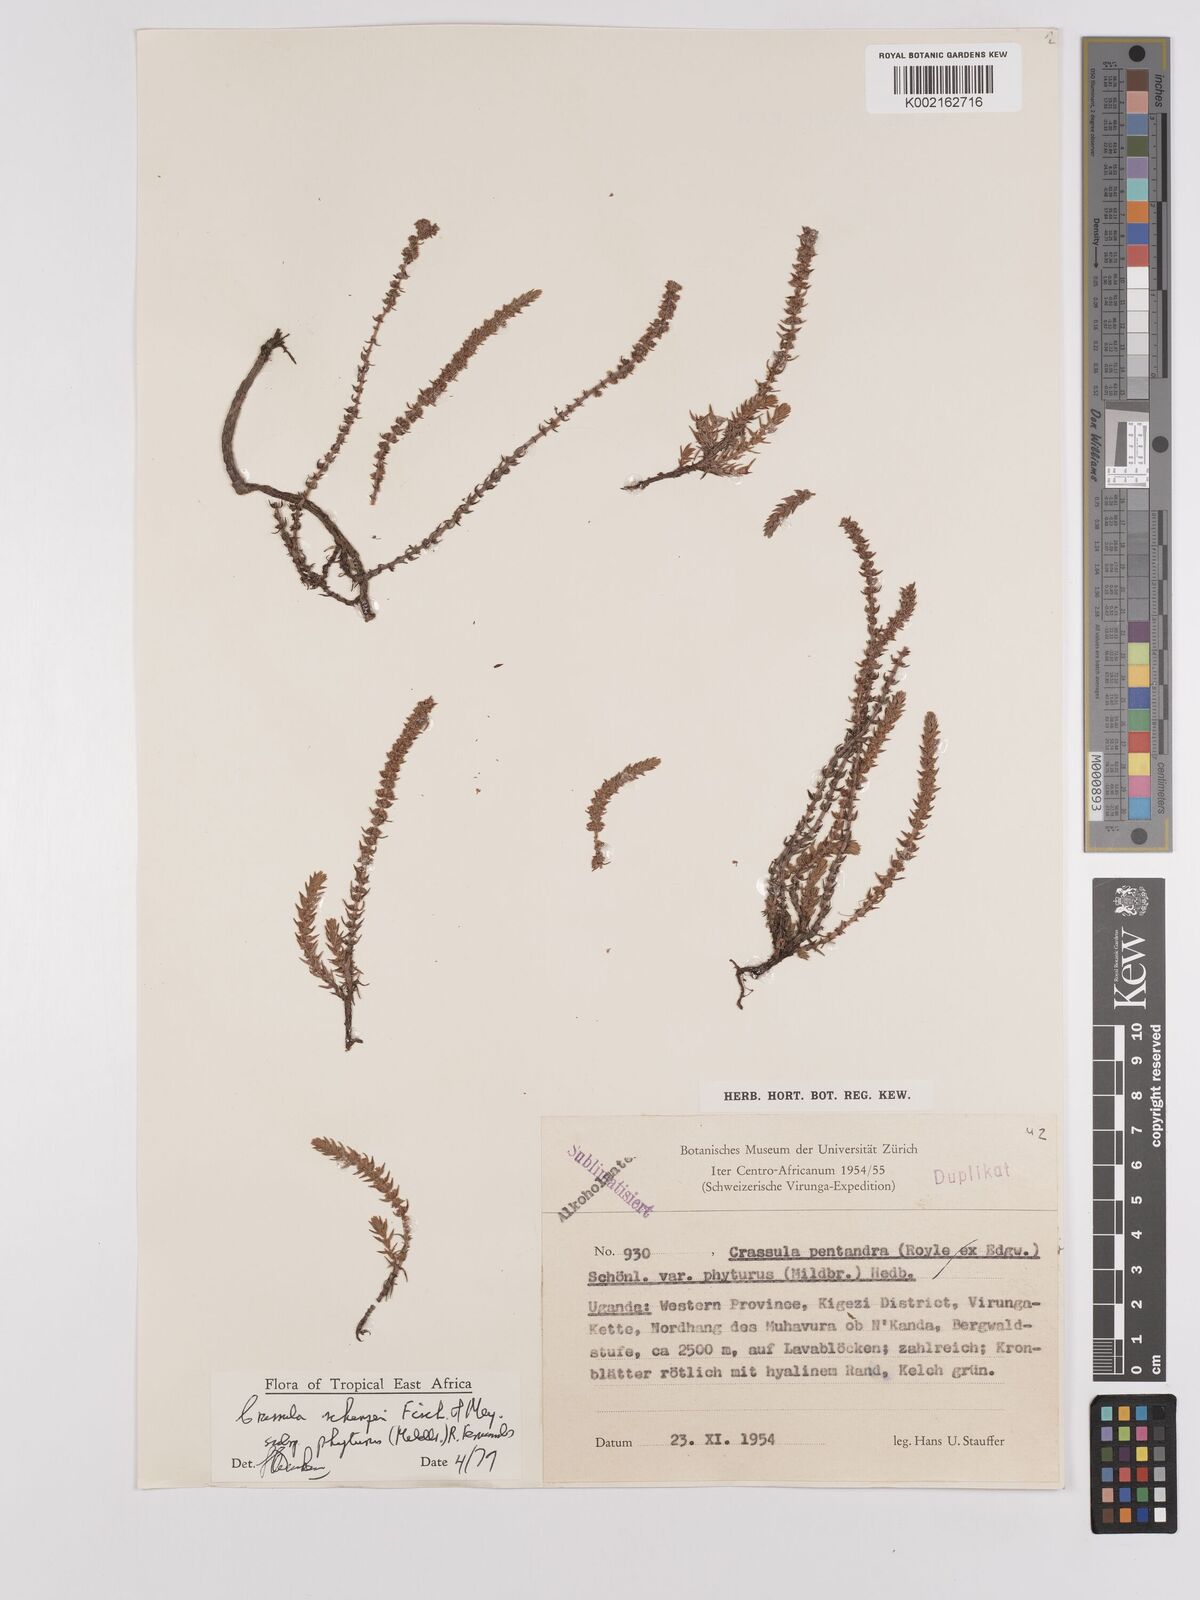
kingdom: Plantae
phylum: Tracheophyta
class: Magnoliopsida
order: Saxifragales
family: Crassulaceae
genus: Crassula
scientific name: Crassula schimperi
